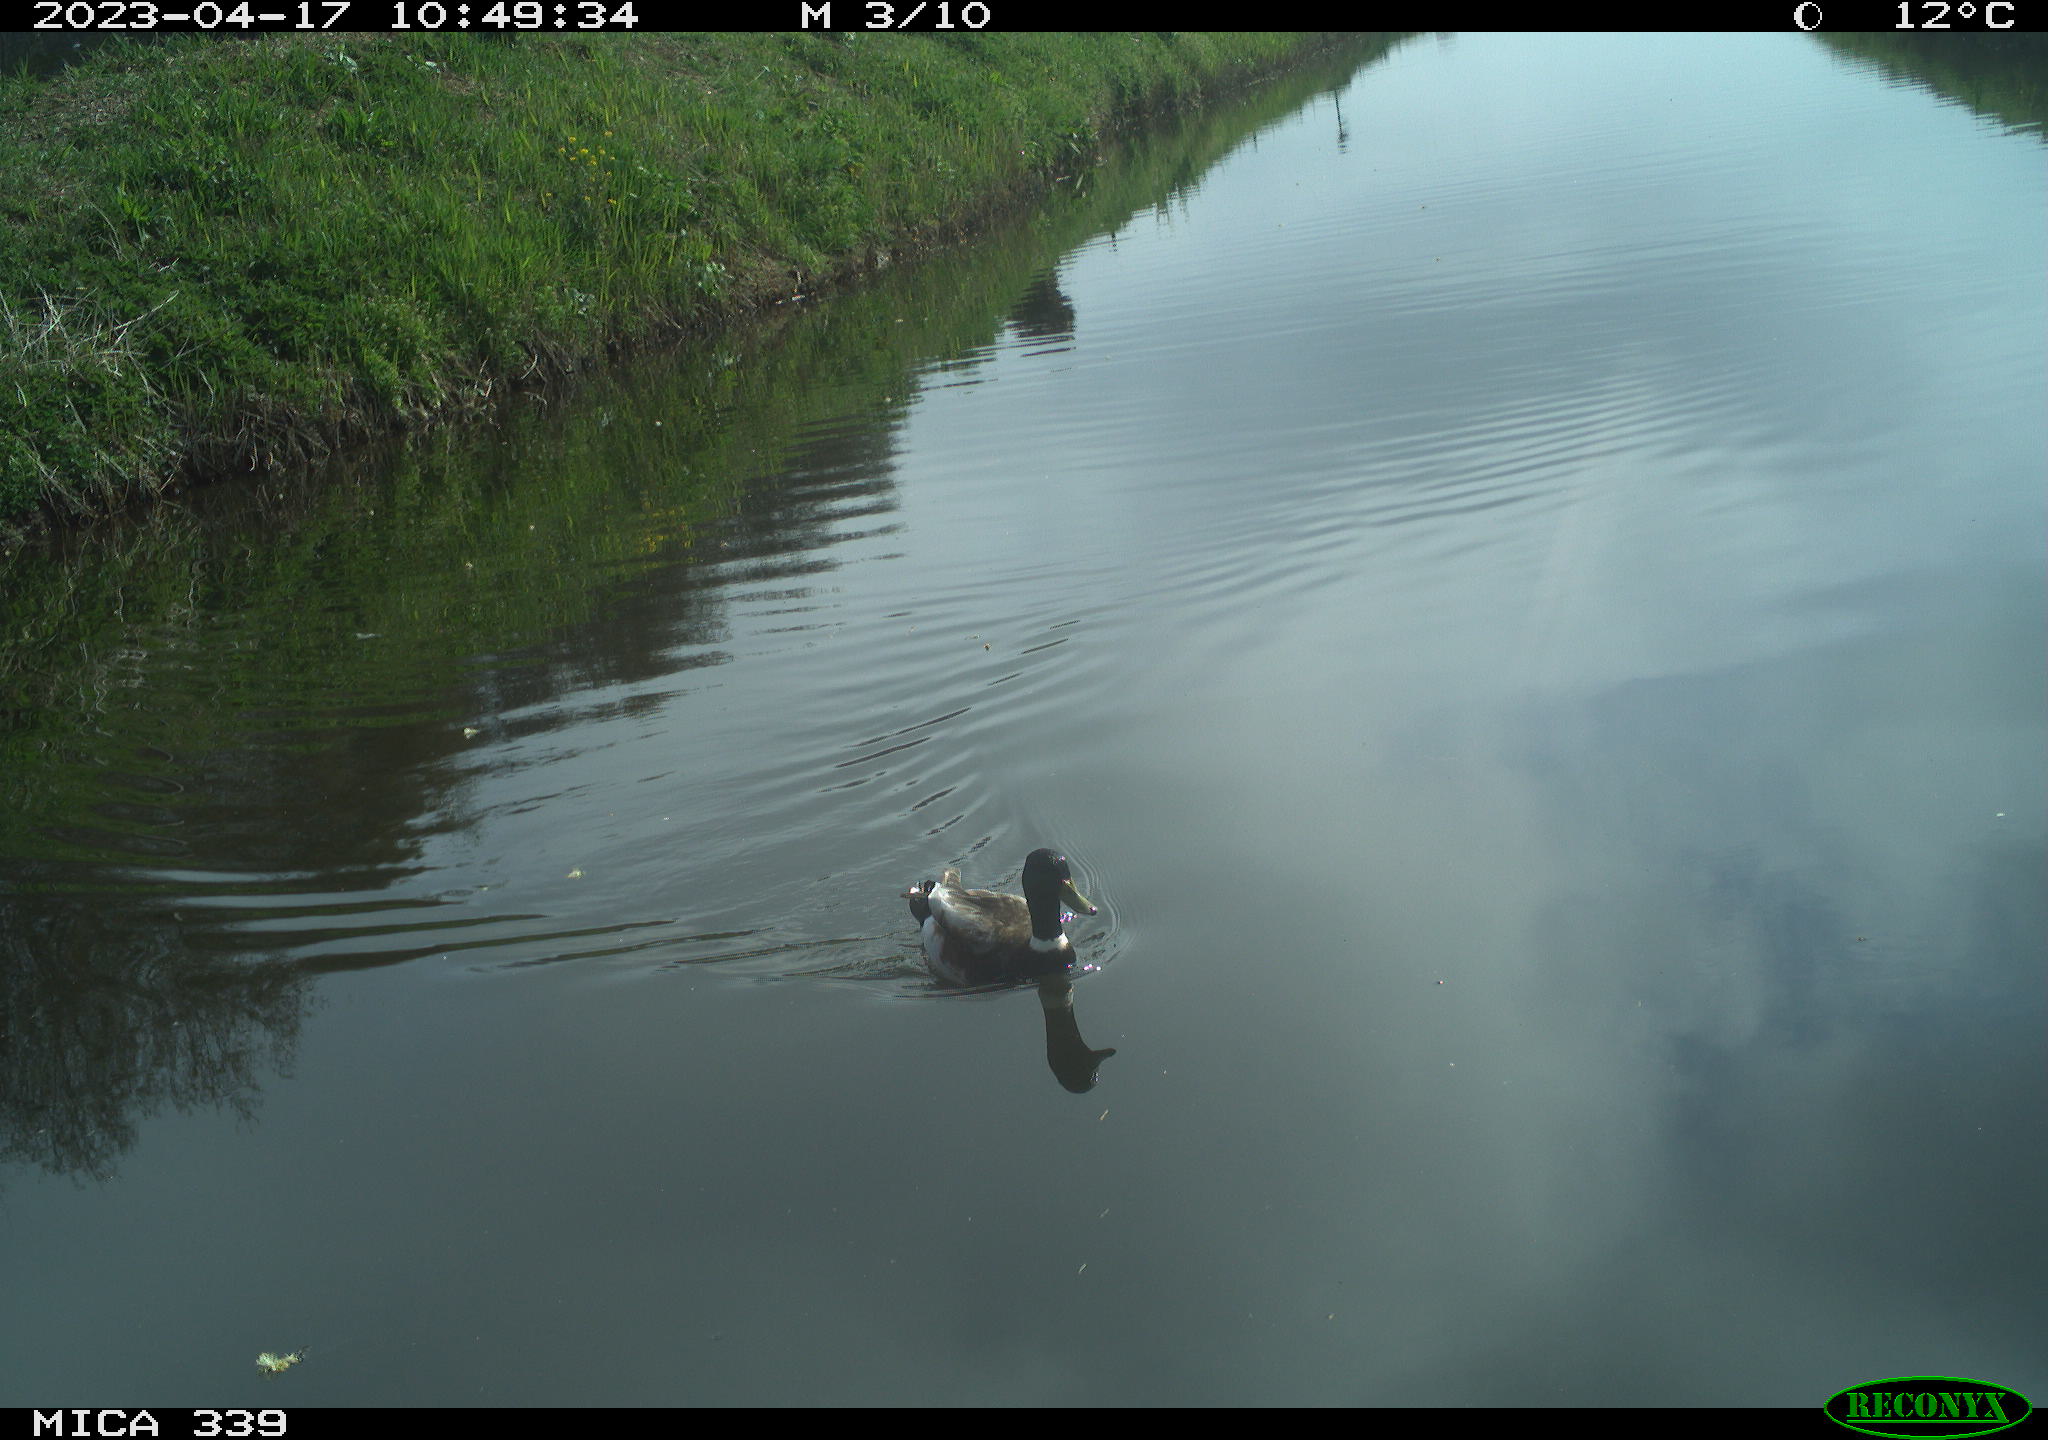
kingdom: Animalia
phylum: Chordata
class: Aves
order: Pelecaniformes
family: Ardeidae
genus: Ardea
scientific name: Ardea cinerea
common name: Grey heron
